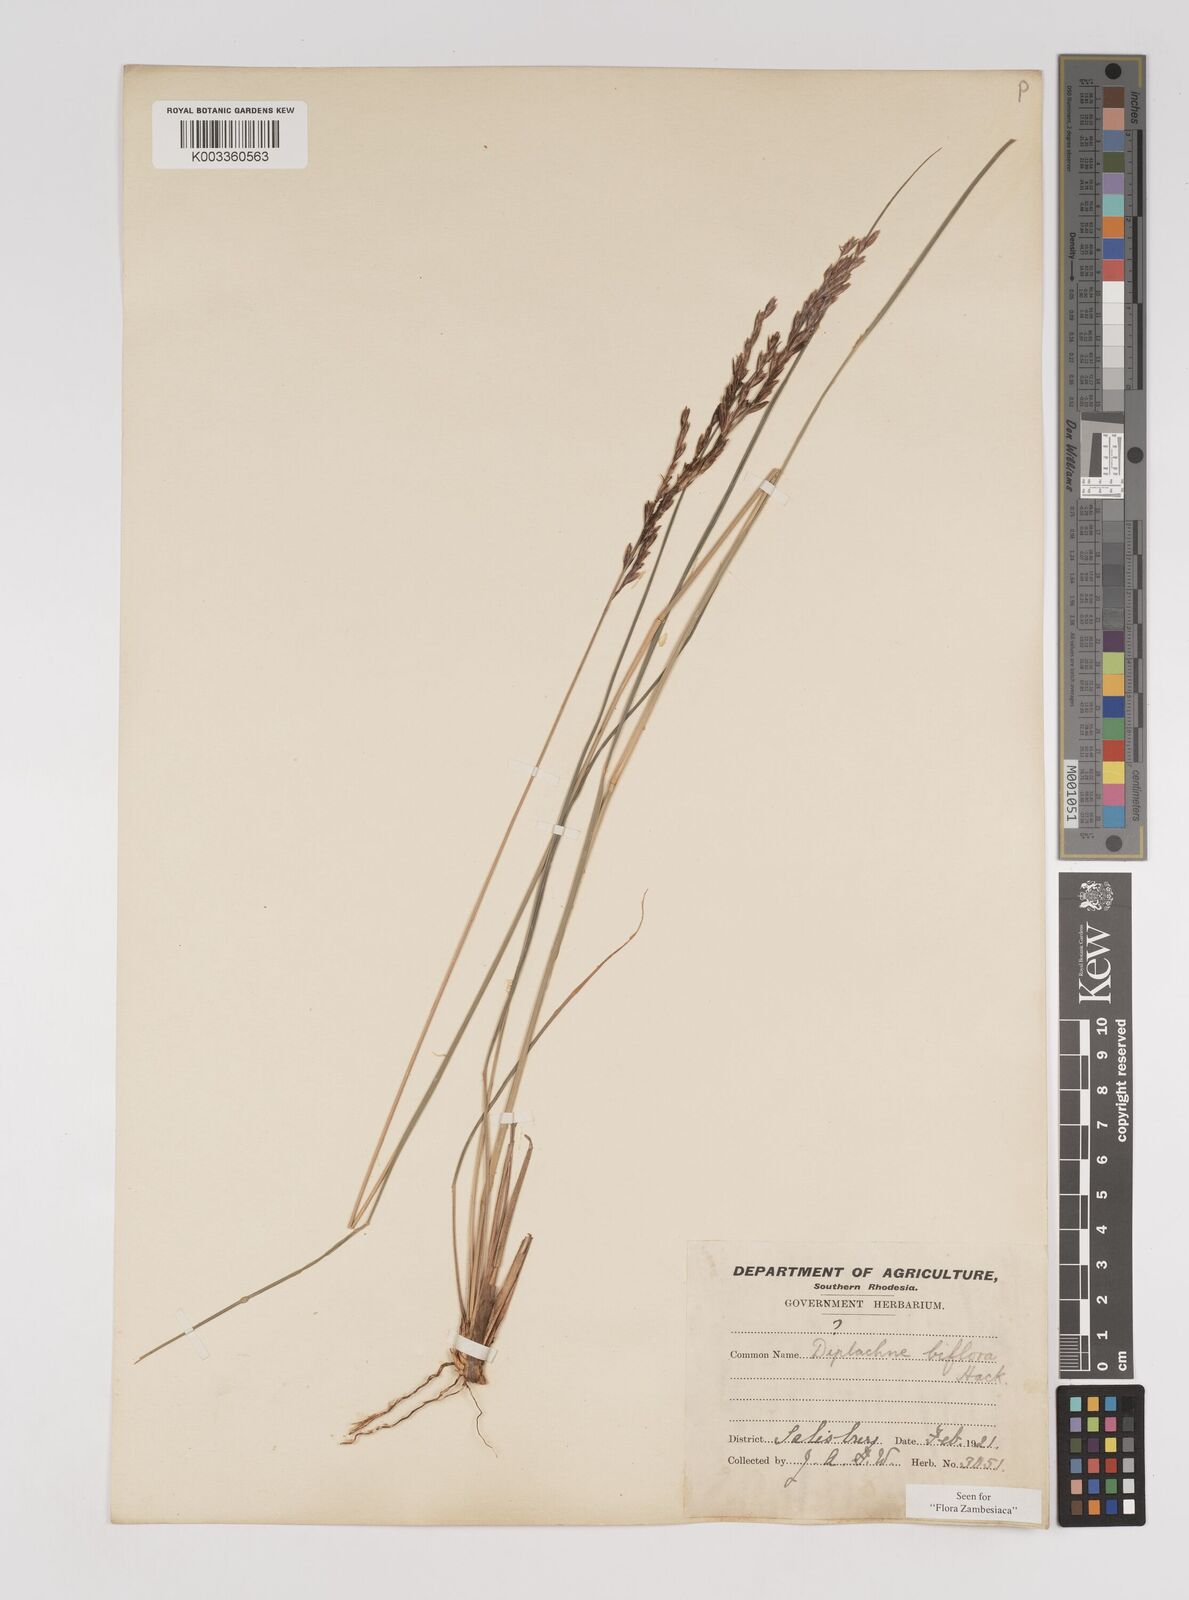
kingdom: Plantae
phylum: Tracheophyta
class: Liliopsida
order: Poales
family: Poaceae
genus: Bewsia
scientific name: Bewsia biflora
